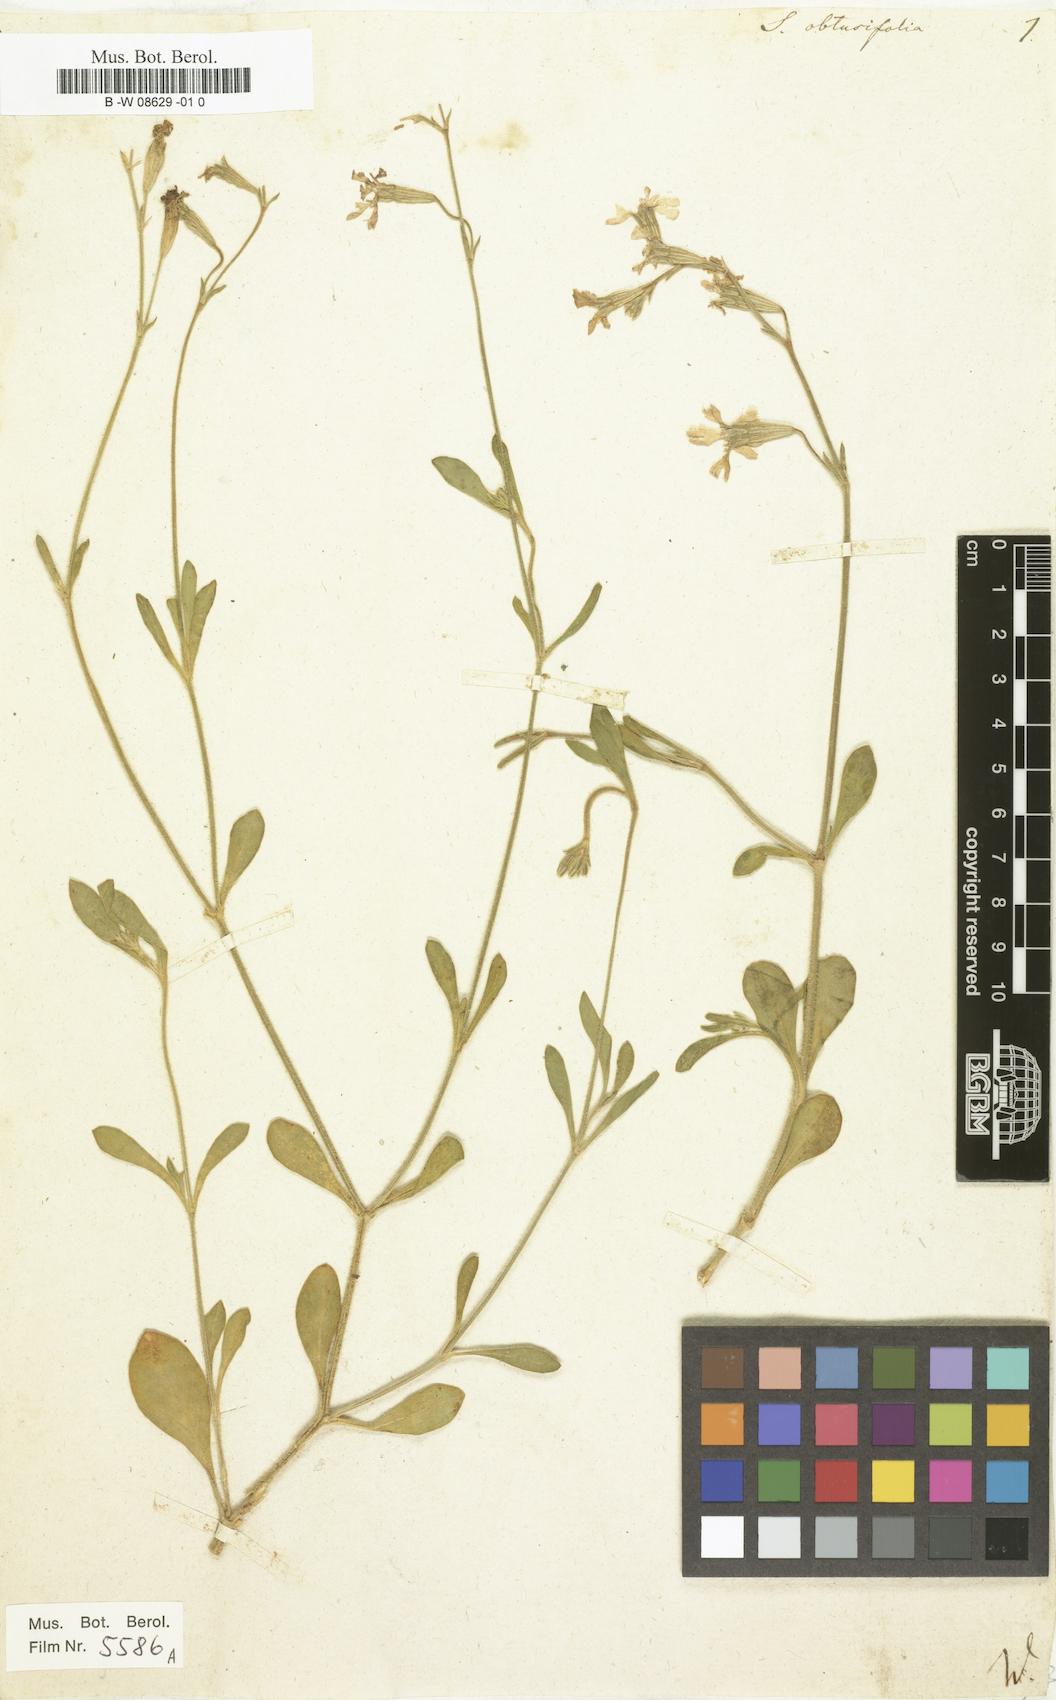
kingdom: Plantae
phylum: Tracheophyta
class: Magnoliopsida
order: Caryophyllales
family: Caryophyllaceae
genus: Silene
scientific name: Silene obtusifolia
